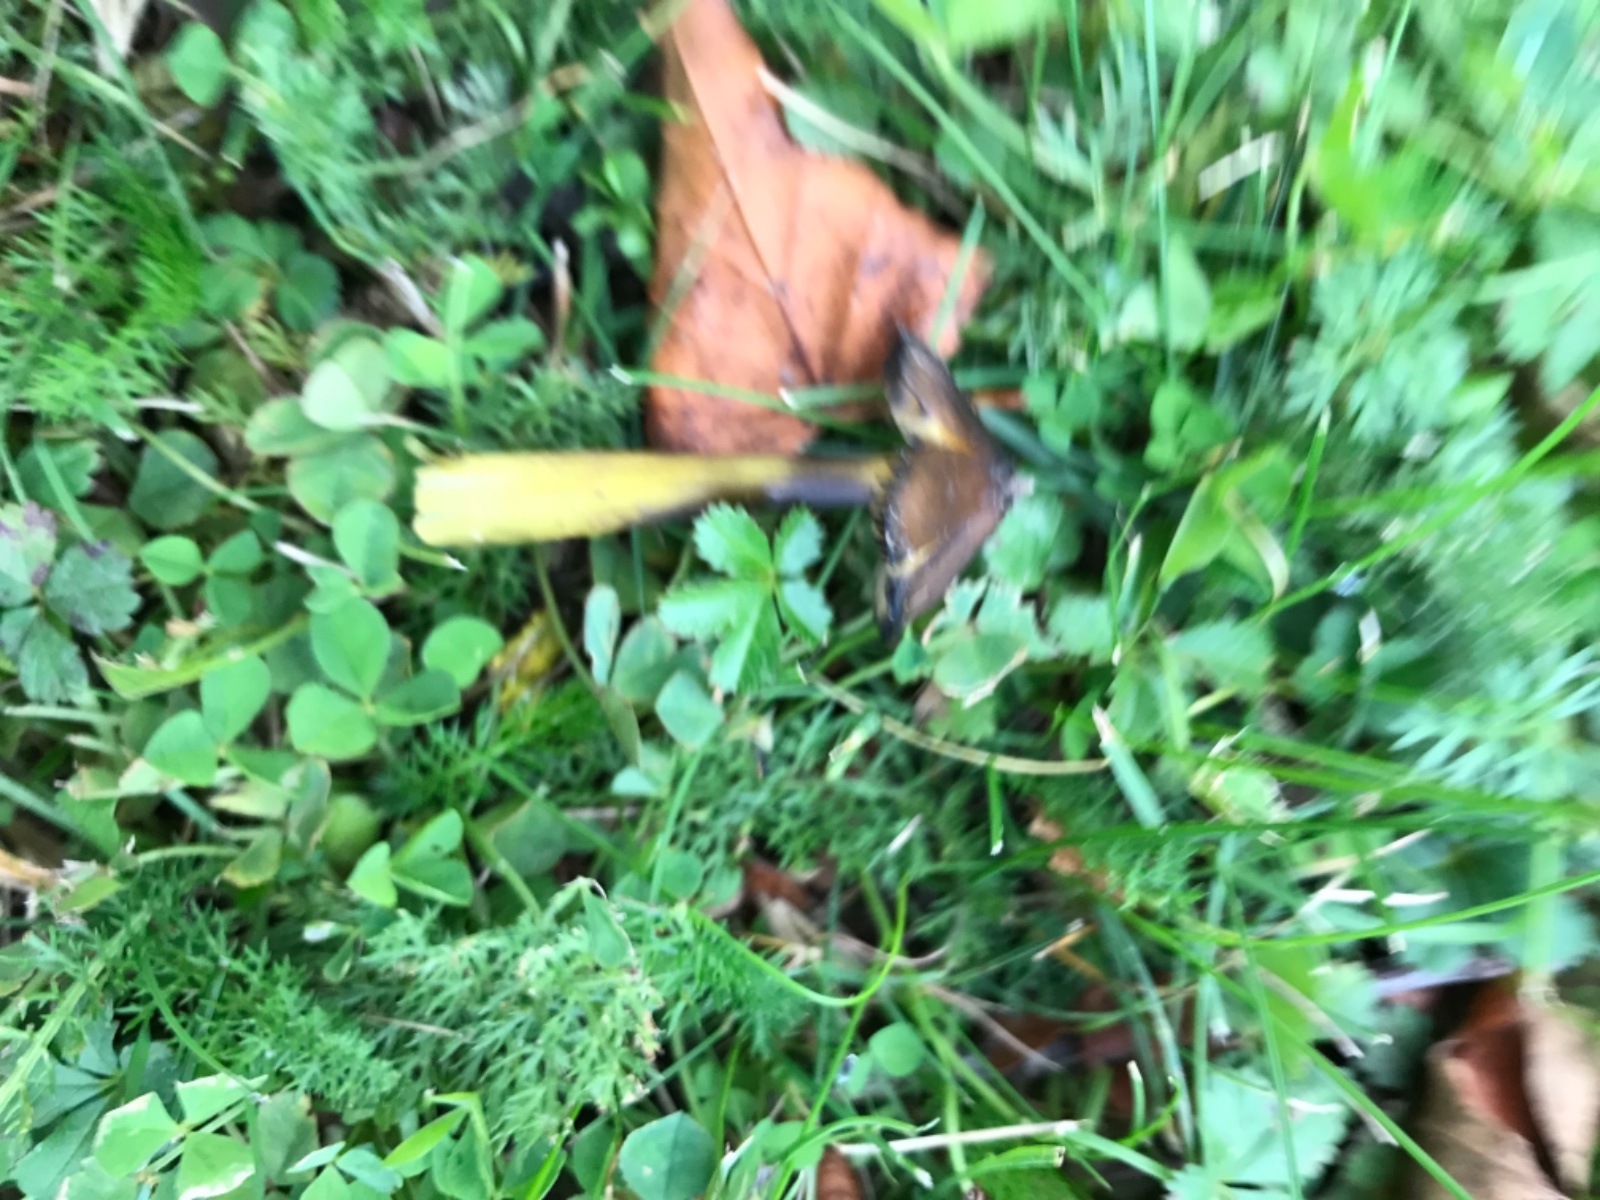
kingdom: Fungi
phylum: Basidiomycota
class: Agaricomycetes
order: Agaricales
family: Hygrophoraceae
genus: Hygrocybe
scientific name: Hygrocybe conica
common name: kegle-vokshat
